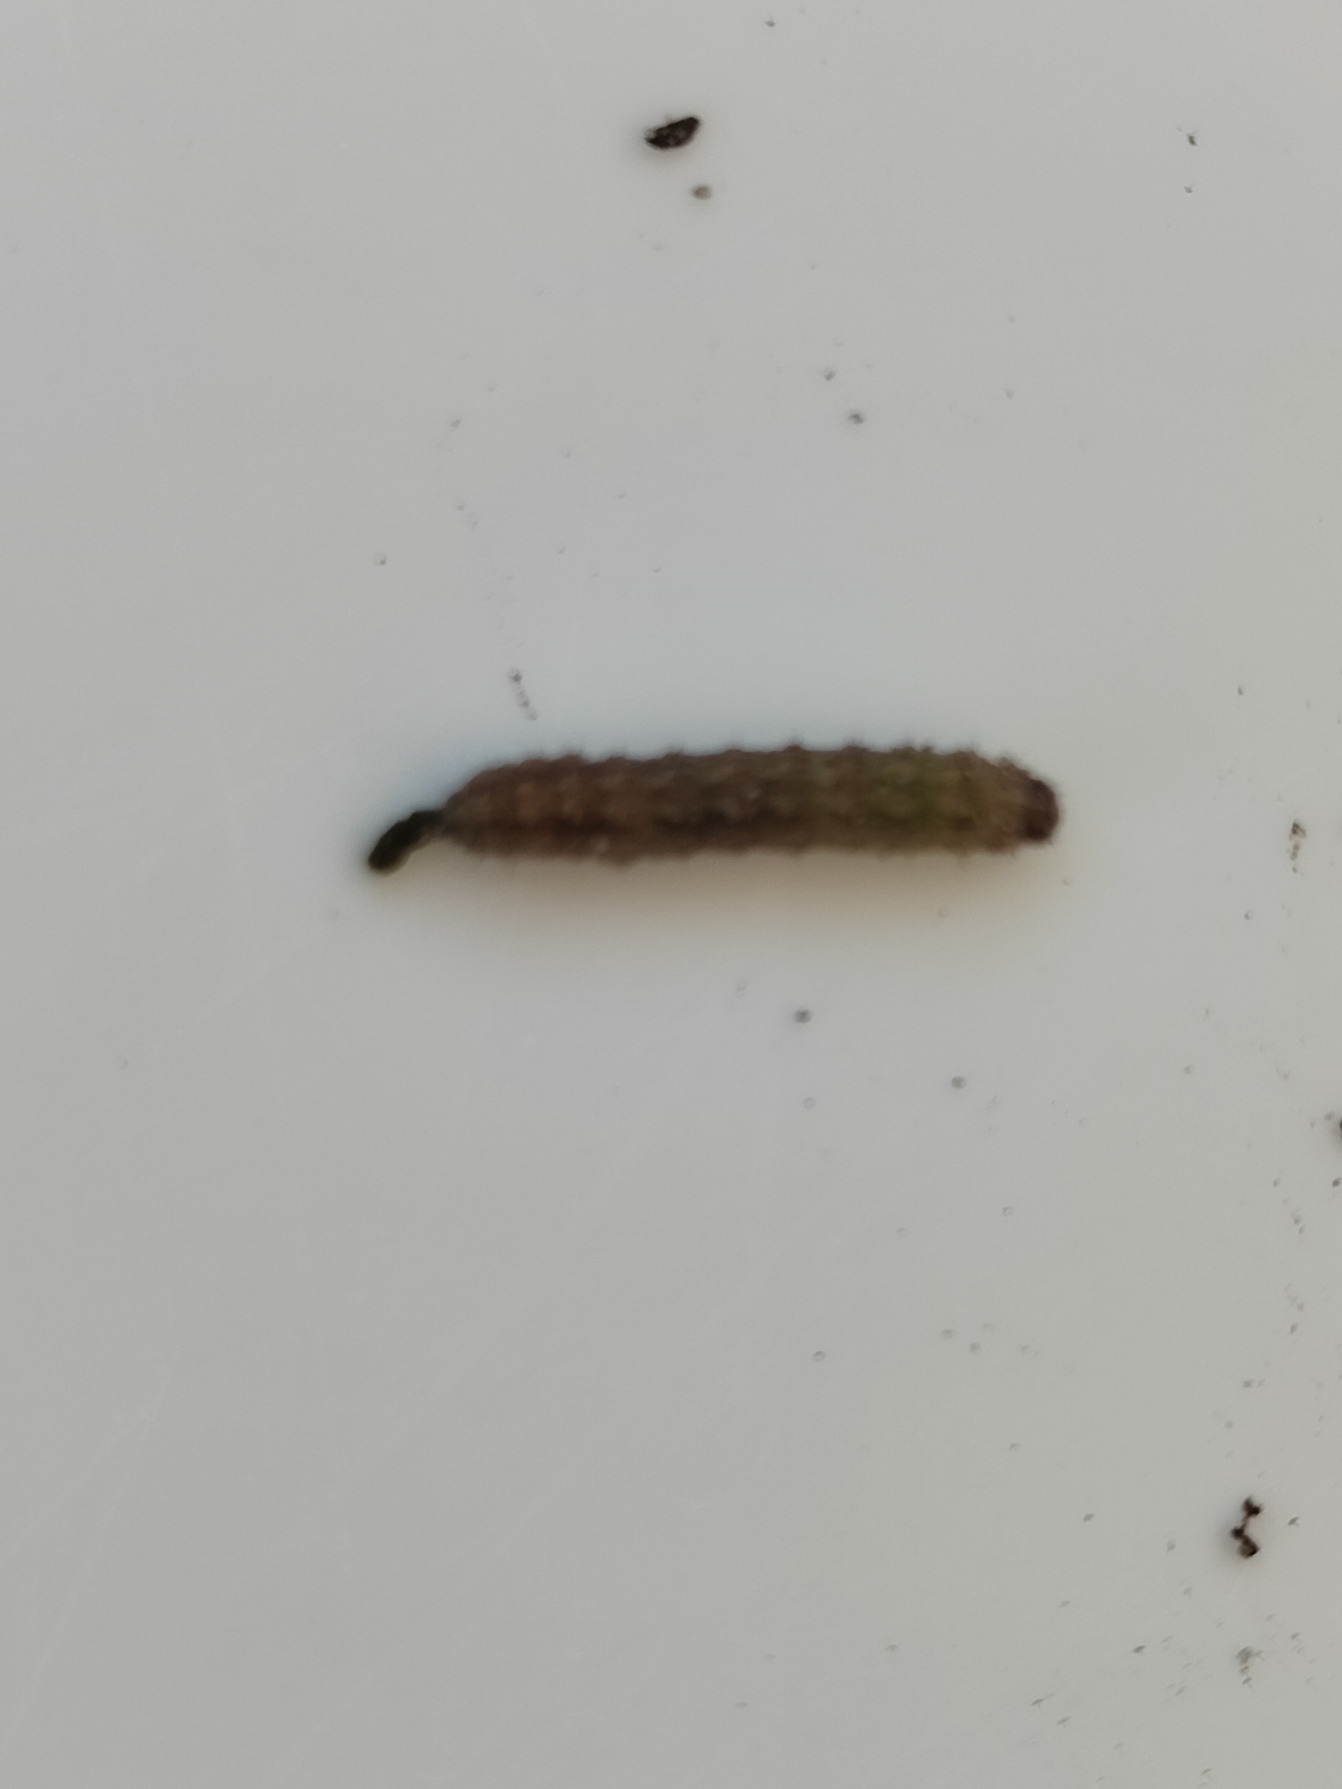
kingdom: Animalia
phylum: Arthropoda
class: Insecta
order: Lepidoptera
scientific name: Lepidoptera
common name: Sommerfugle
